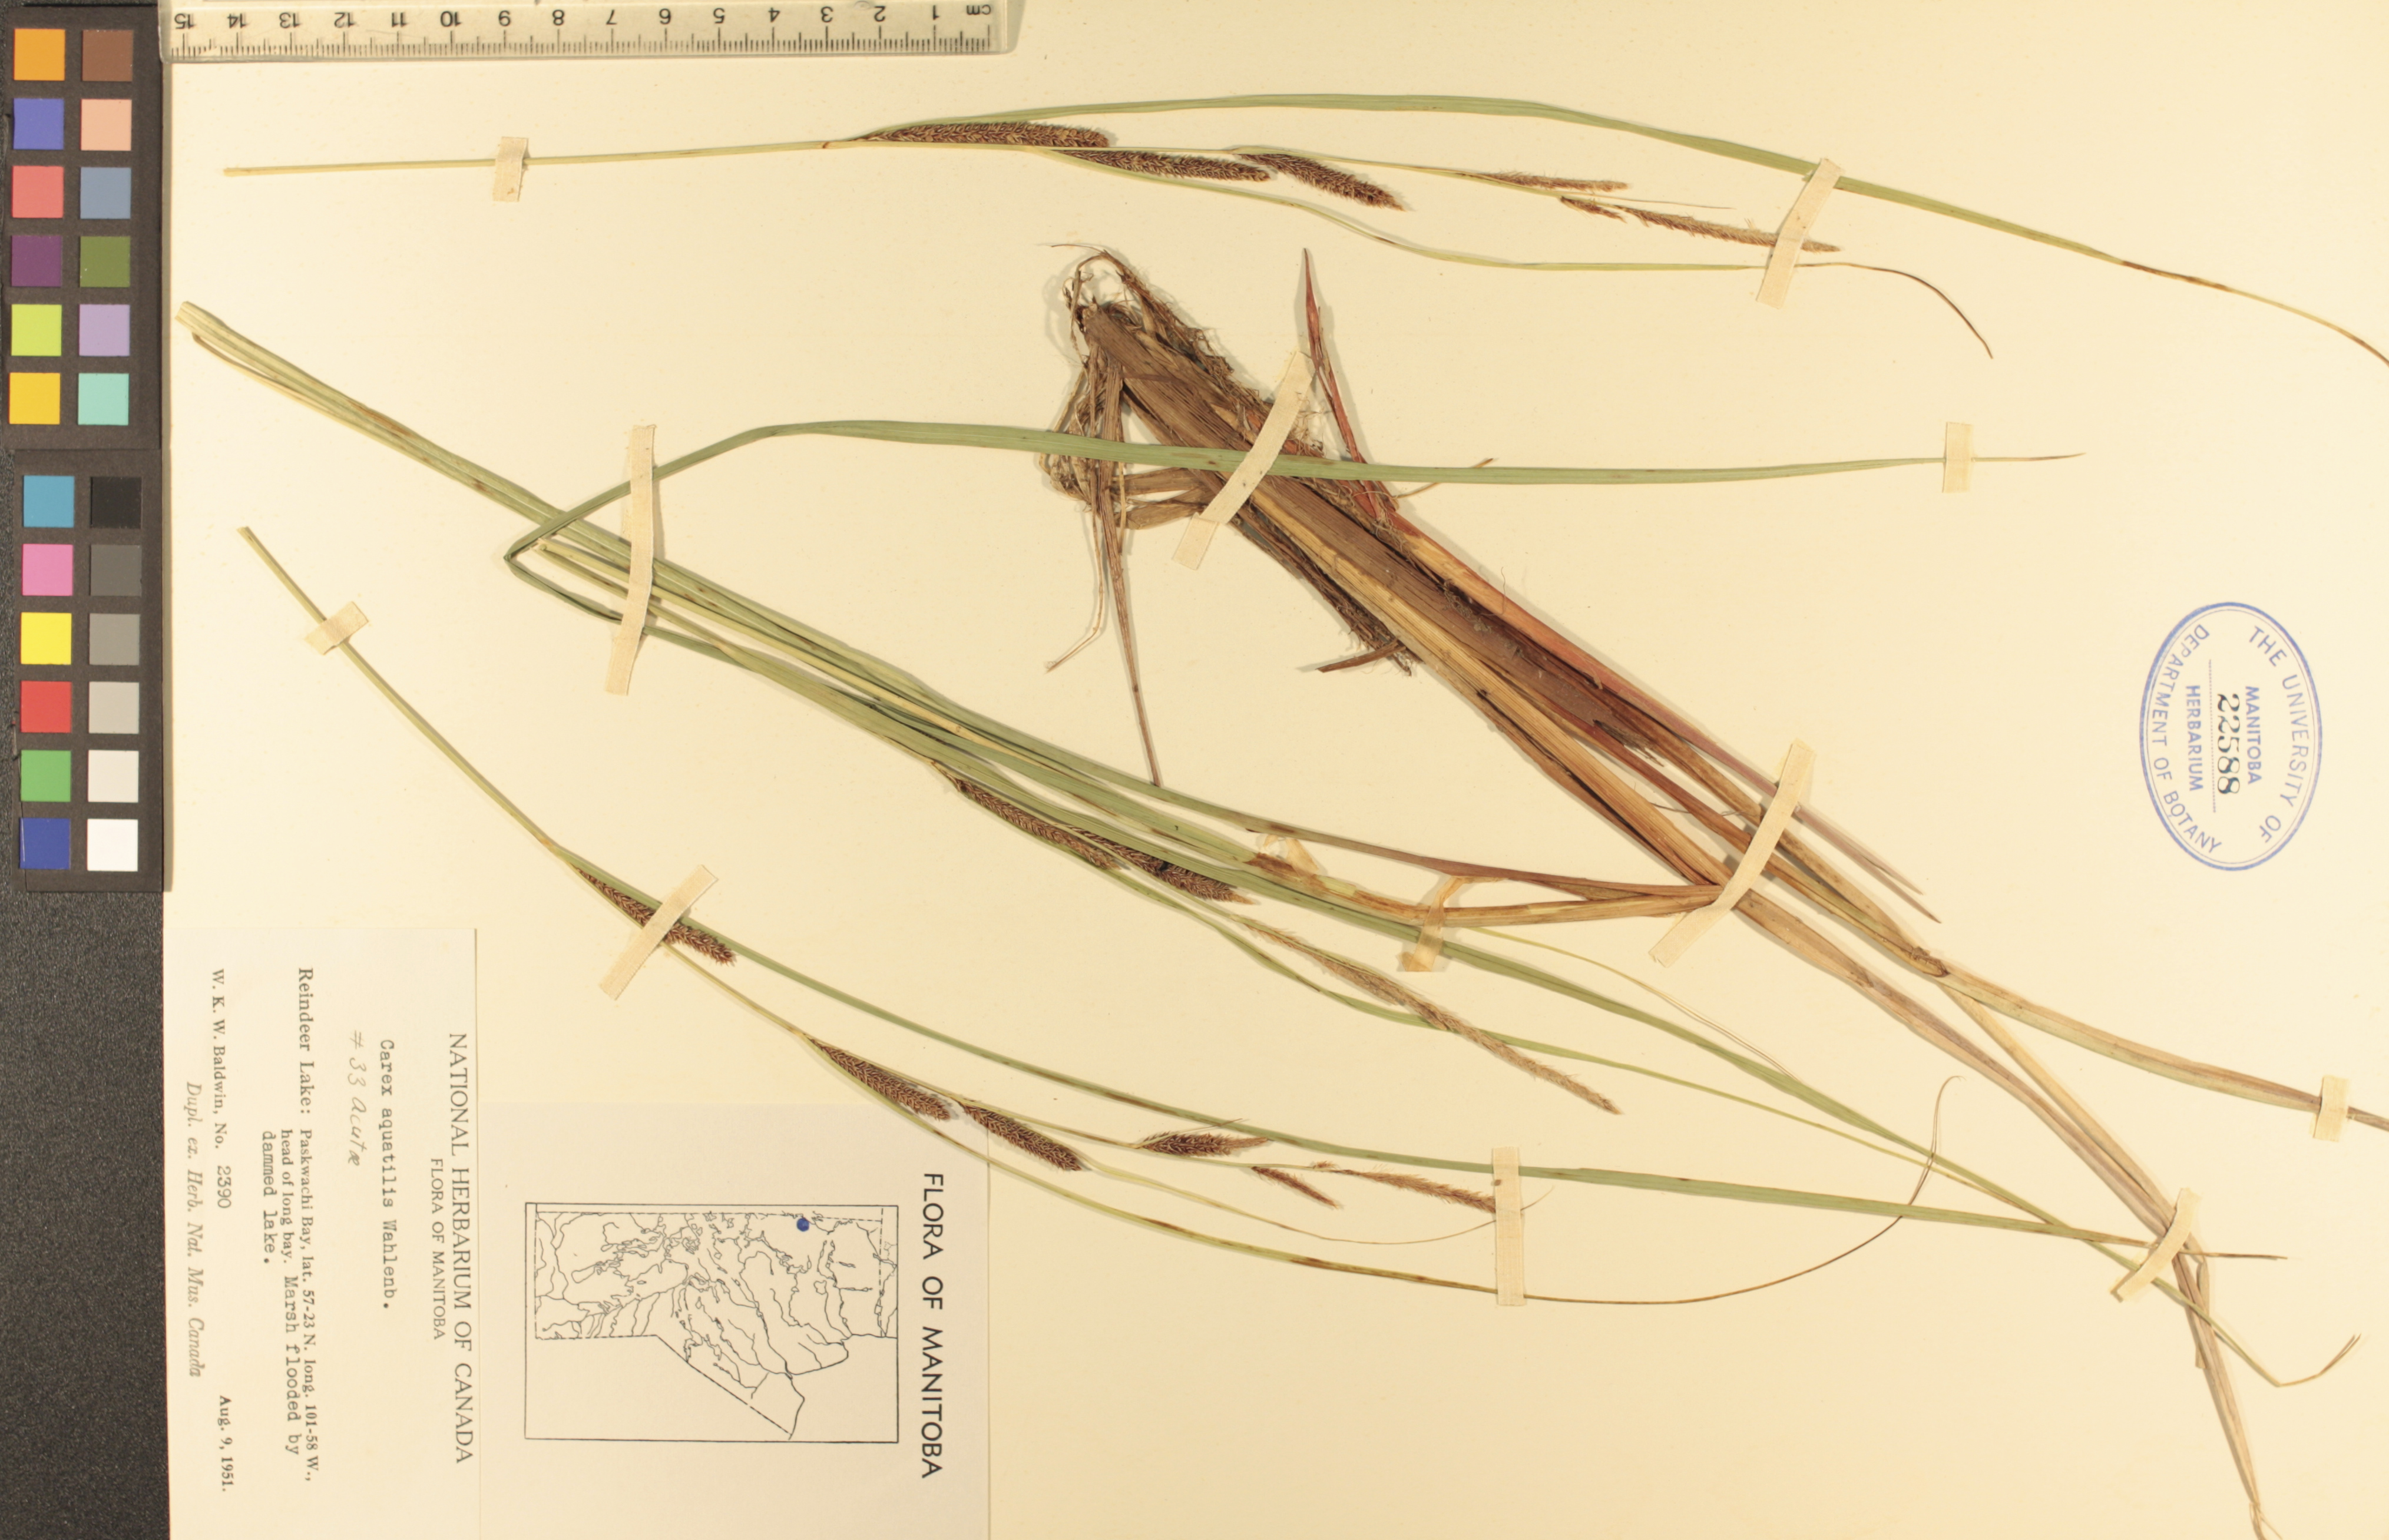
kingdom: Plantae
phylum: Tracheophyta
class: Liliopsida
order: Poales
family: Cyperaceae
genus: Carex
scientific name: Carex aquatilis
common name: Water sedge
